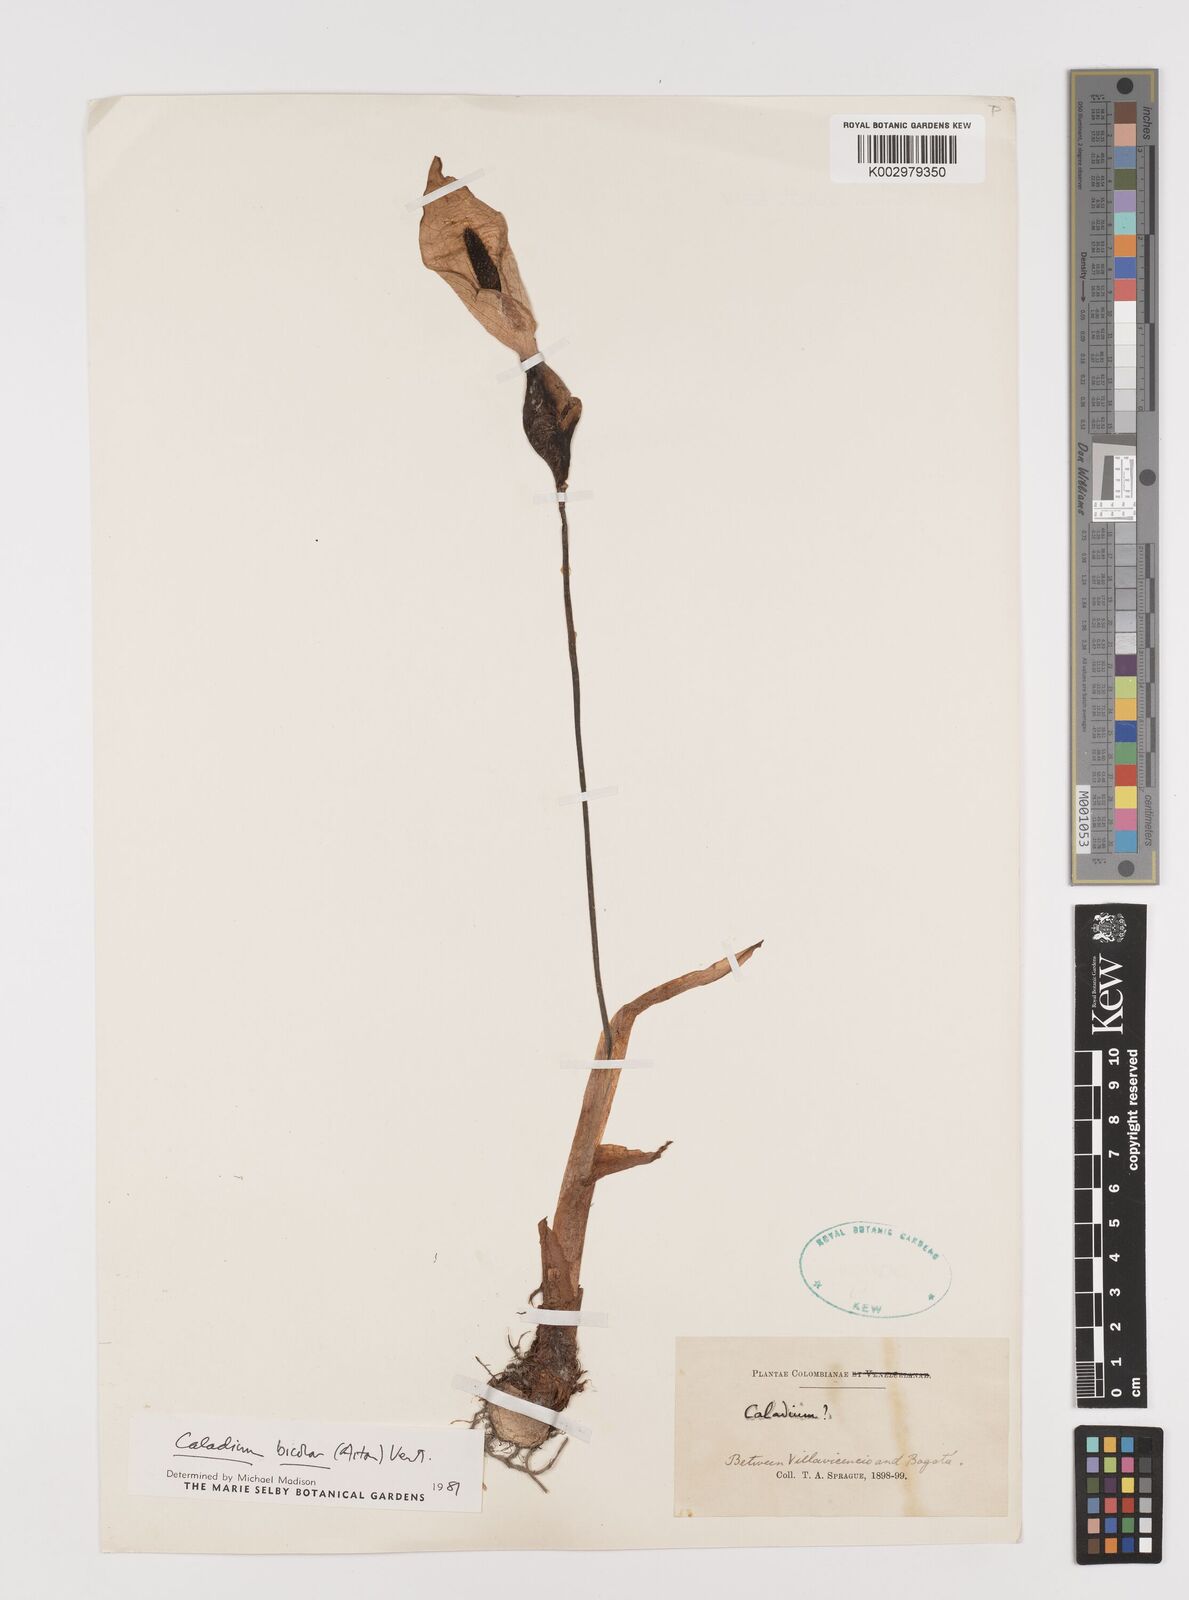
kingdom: Plantae
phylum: Tracheophyta
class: Liliopsida
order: Alismatales
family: Araceae
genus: Caladium
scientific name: Caladium bicolor
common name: Artist's pallet
